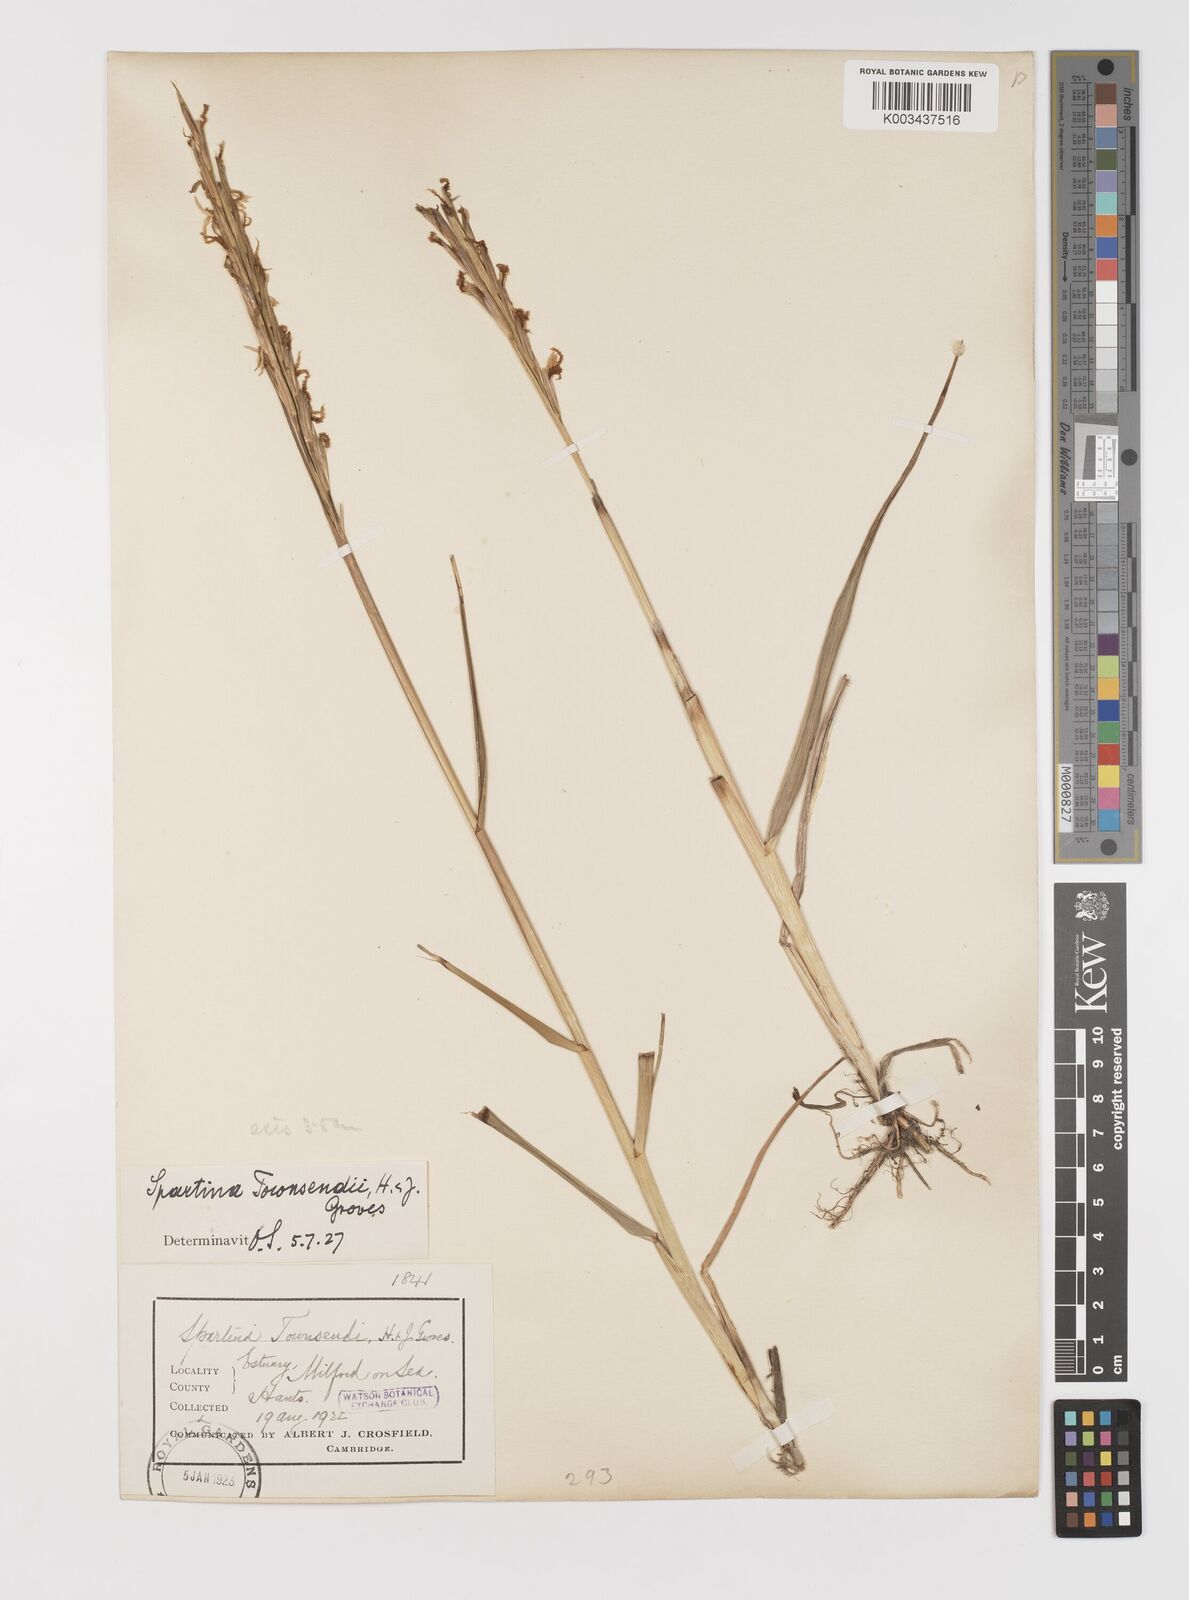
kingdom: Plantae
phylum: Tracheophyta
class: Liliopsida
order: Poales
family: Poaceae
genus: Sporobolus
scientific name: Sporobolus anglicus
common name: English cordgrass
